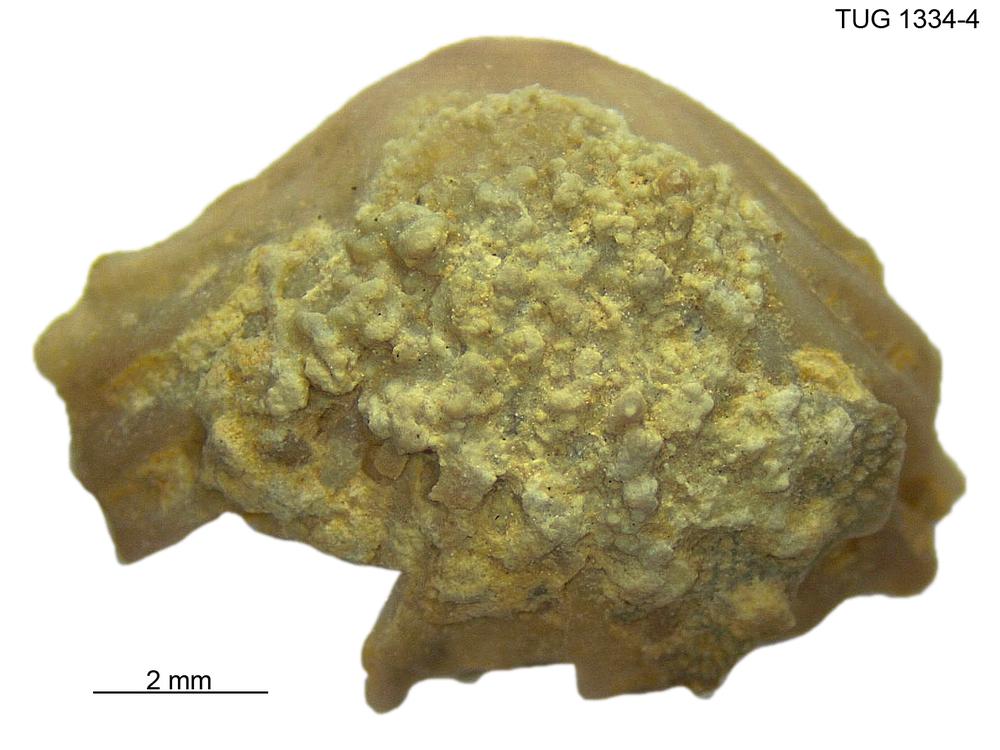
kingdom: Animalia
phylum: Brachiopoda
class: Rhynchonellata
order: Rhynchonellida
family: Trigonirhynchiidae
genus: Rostricellula
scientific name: Rostricellula nobilis
